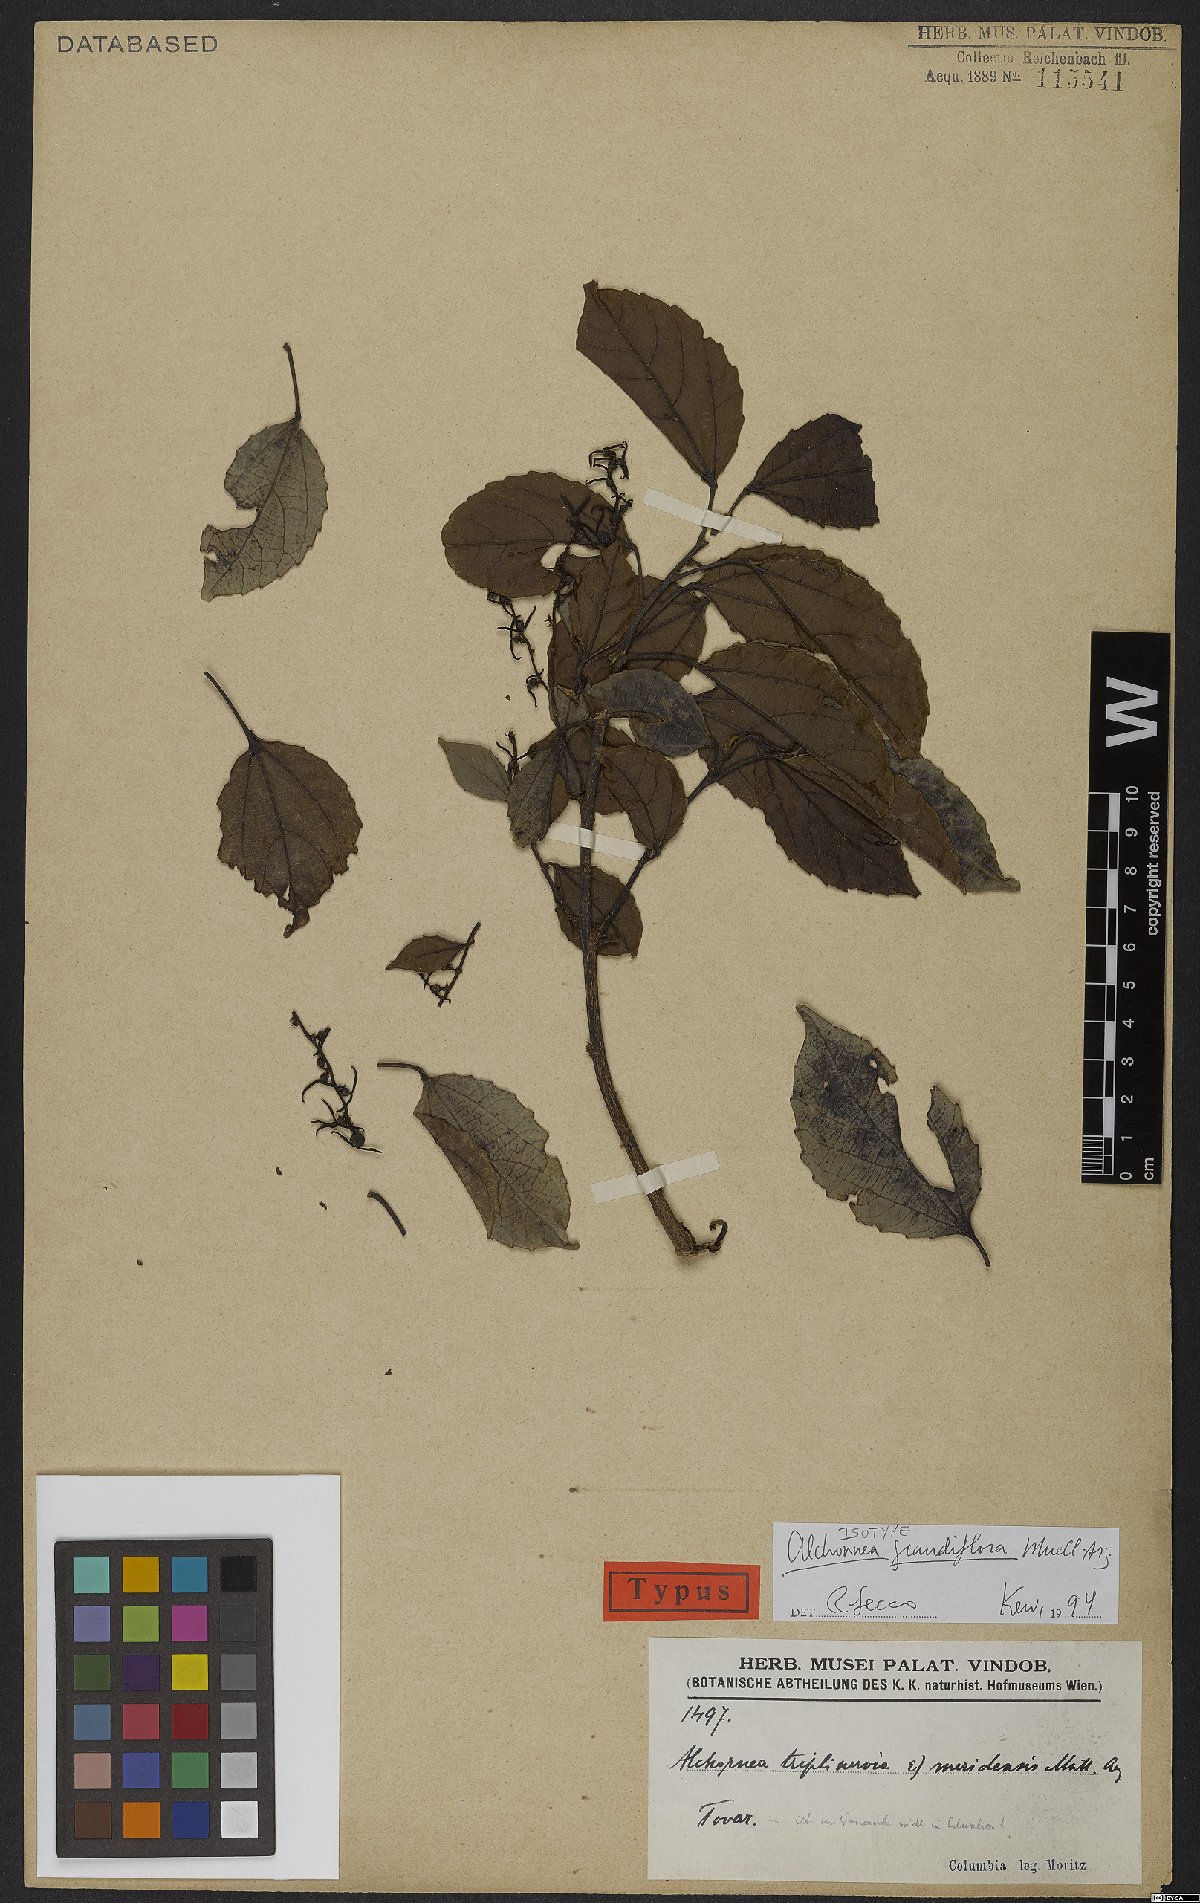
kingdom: Plantae
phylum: Tracheophyta
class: Magnoliopsida
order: Malpighiales
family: Euphorbiaceae
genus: Alchornea
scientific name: Alchornea grandiflora
